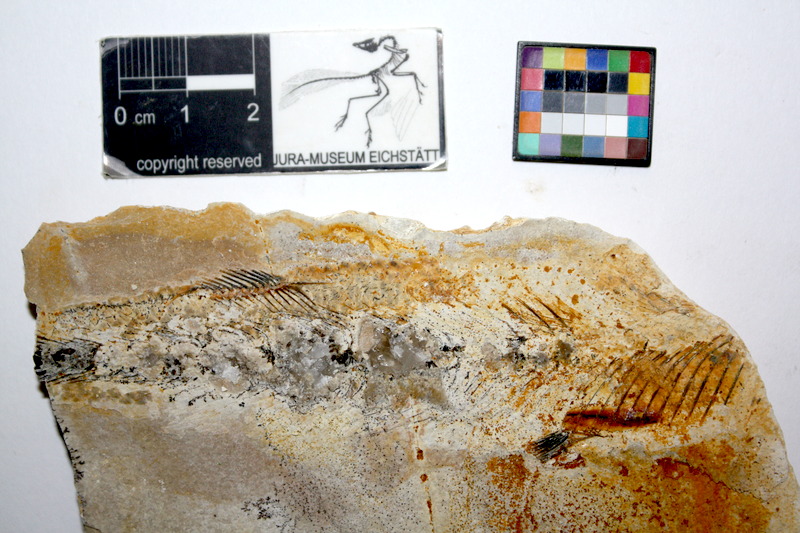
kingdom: Animalia
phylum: Chordata
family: Allothrissopidae
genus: Allothrissops
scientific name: Allothrissops mesogaster
